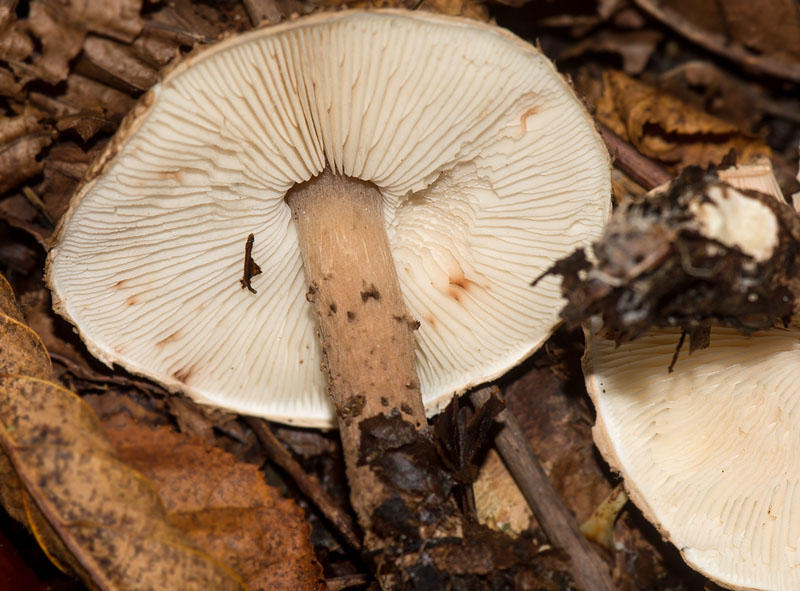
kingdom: Fungi
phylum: Basidiomycota
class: Agaricomycetes
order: Agaricales
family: Agaricaceae
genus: Echinoderma
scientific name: Echinoderma
